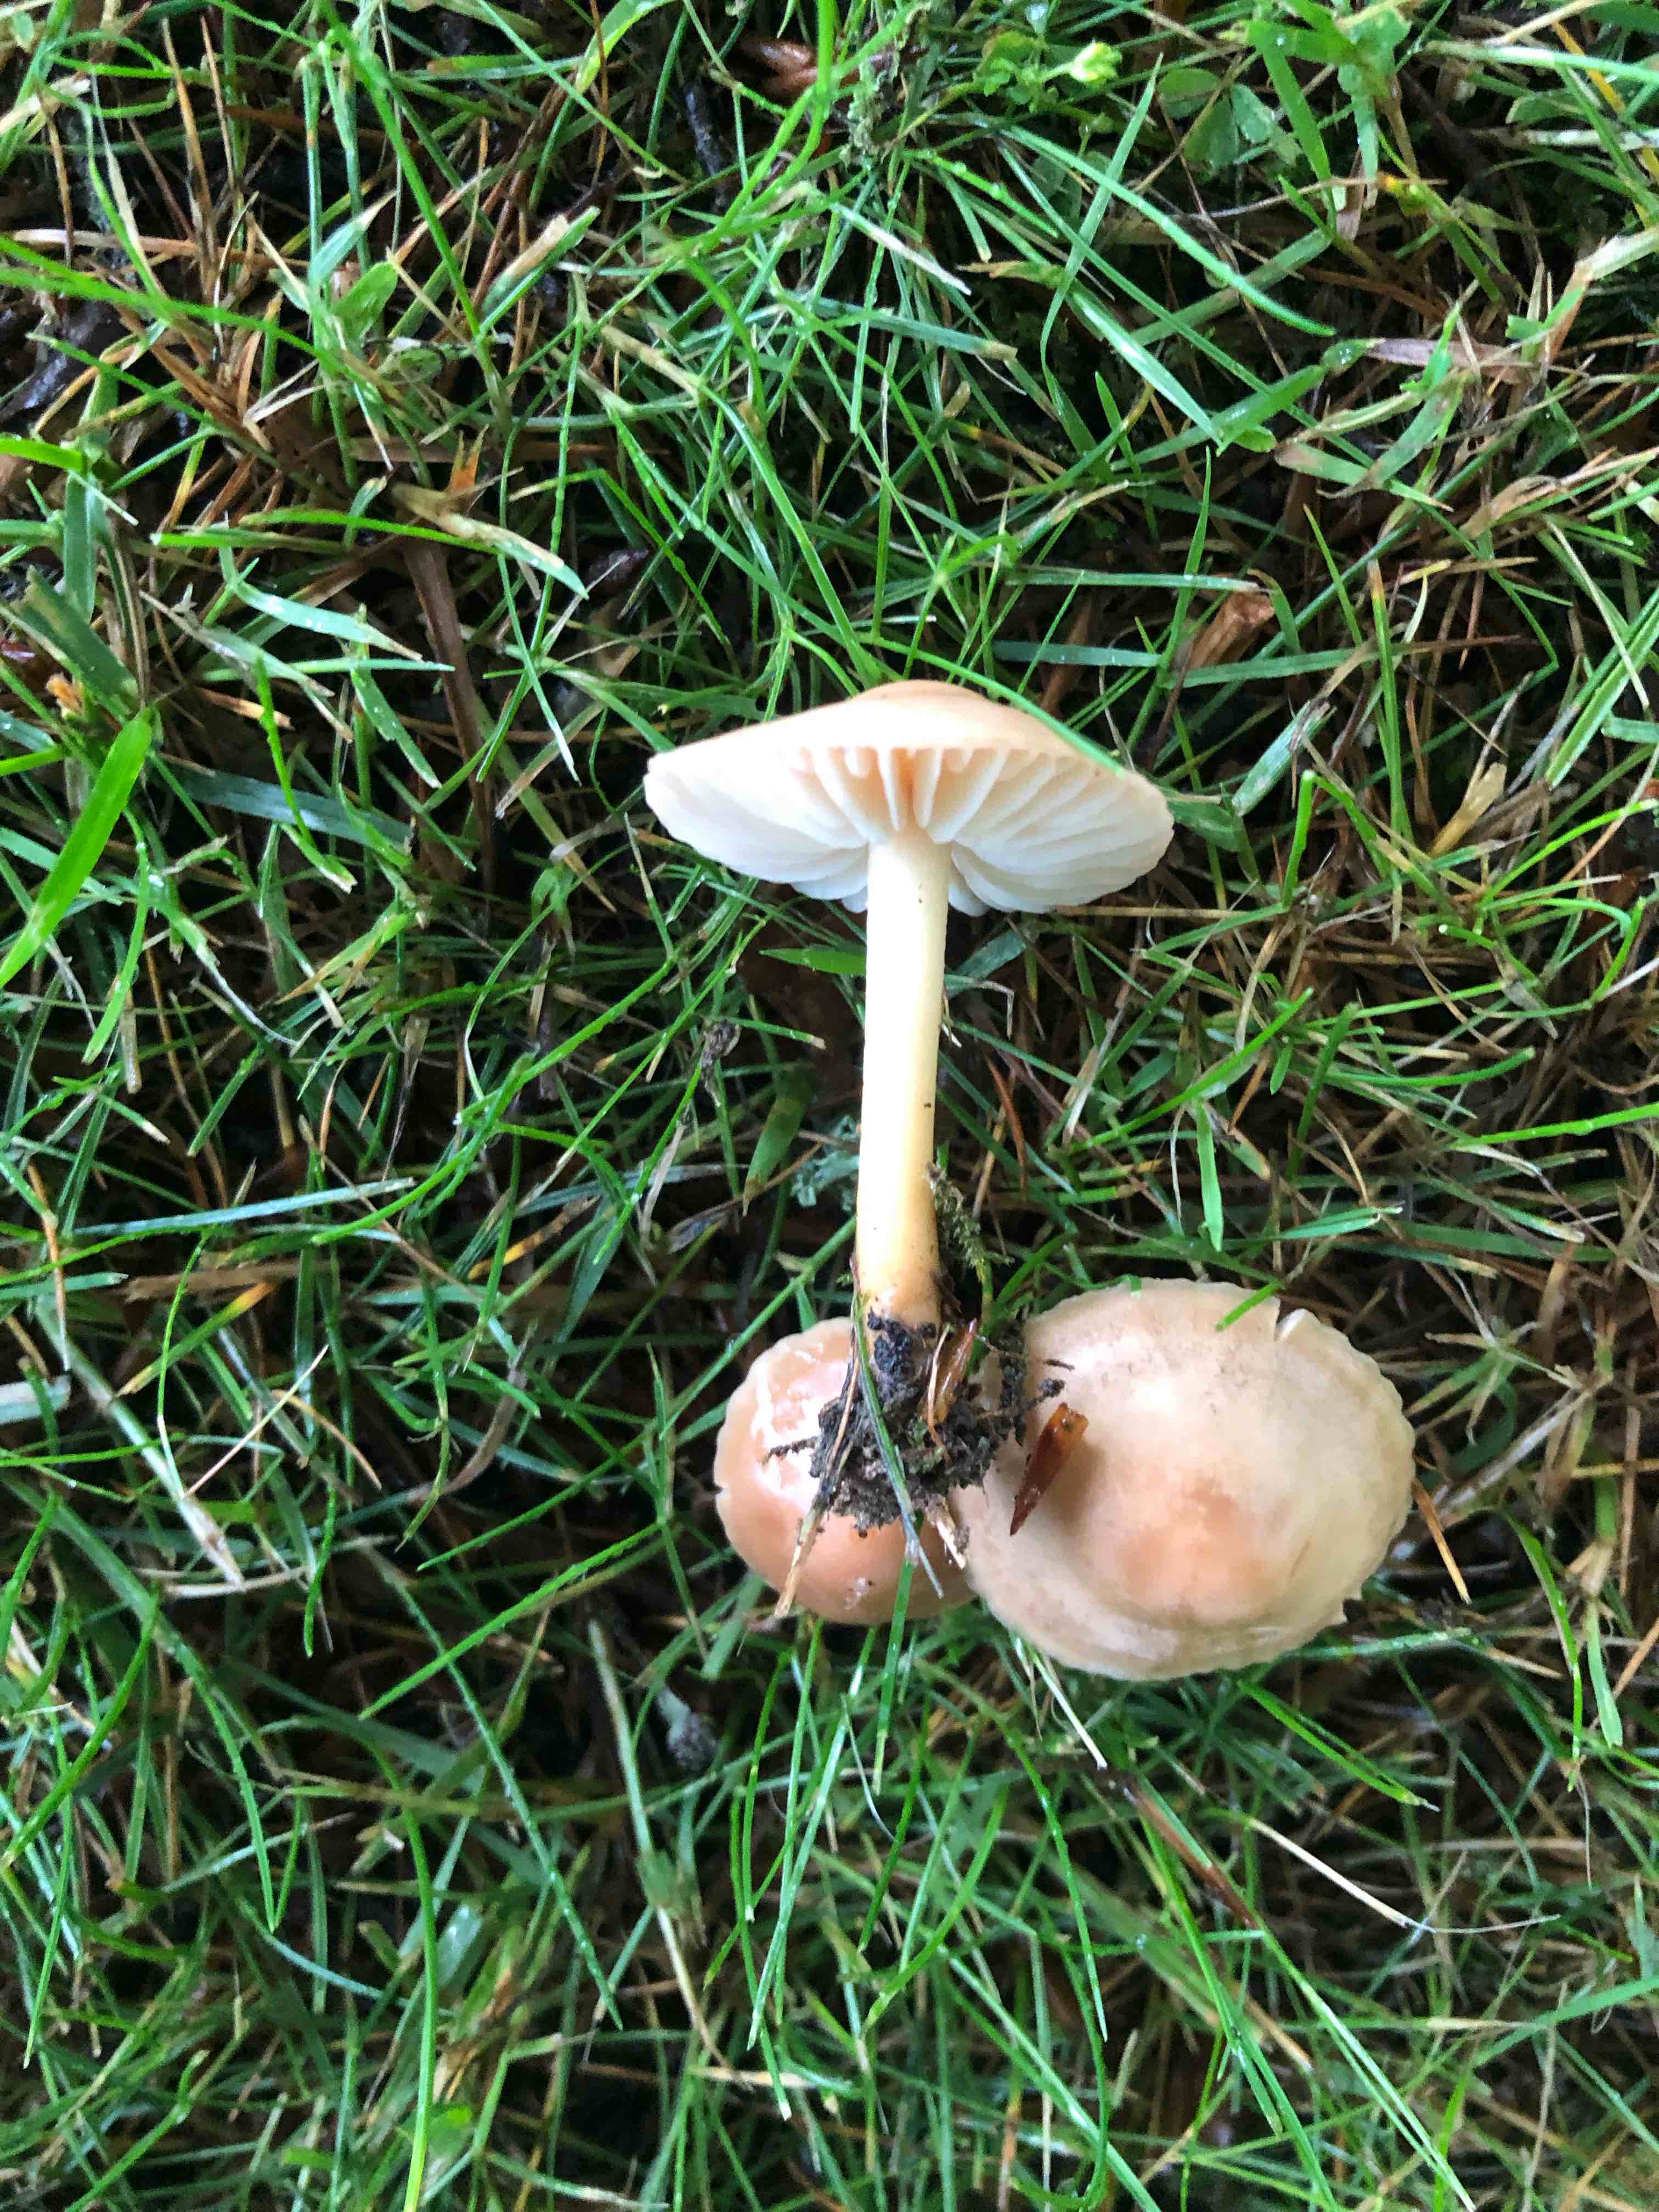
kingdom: Fungi
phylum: Basidiomycota
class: Agaricomycetes
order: Agaricales
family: Marasmiaceae
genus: Marasmius
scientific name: Marasmius oreades
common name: elledans-bruskhat
